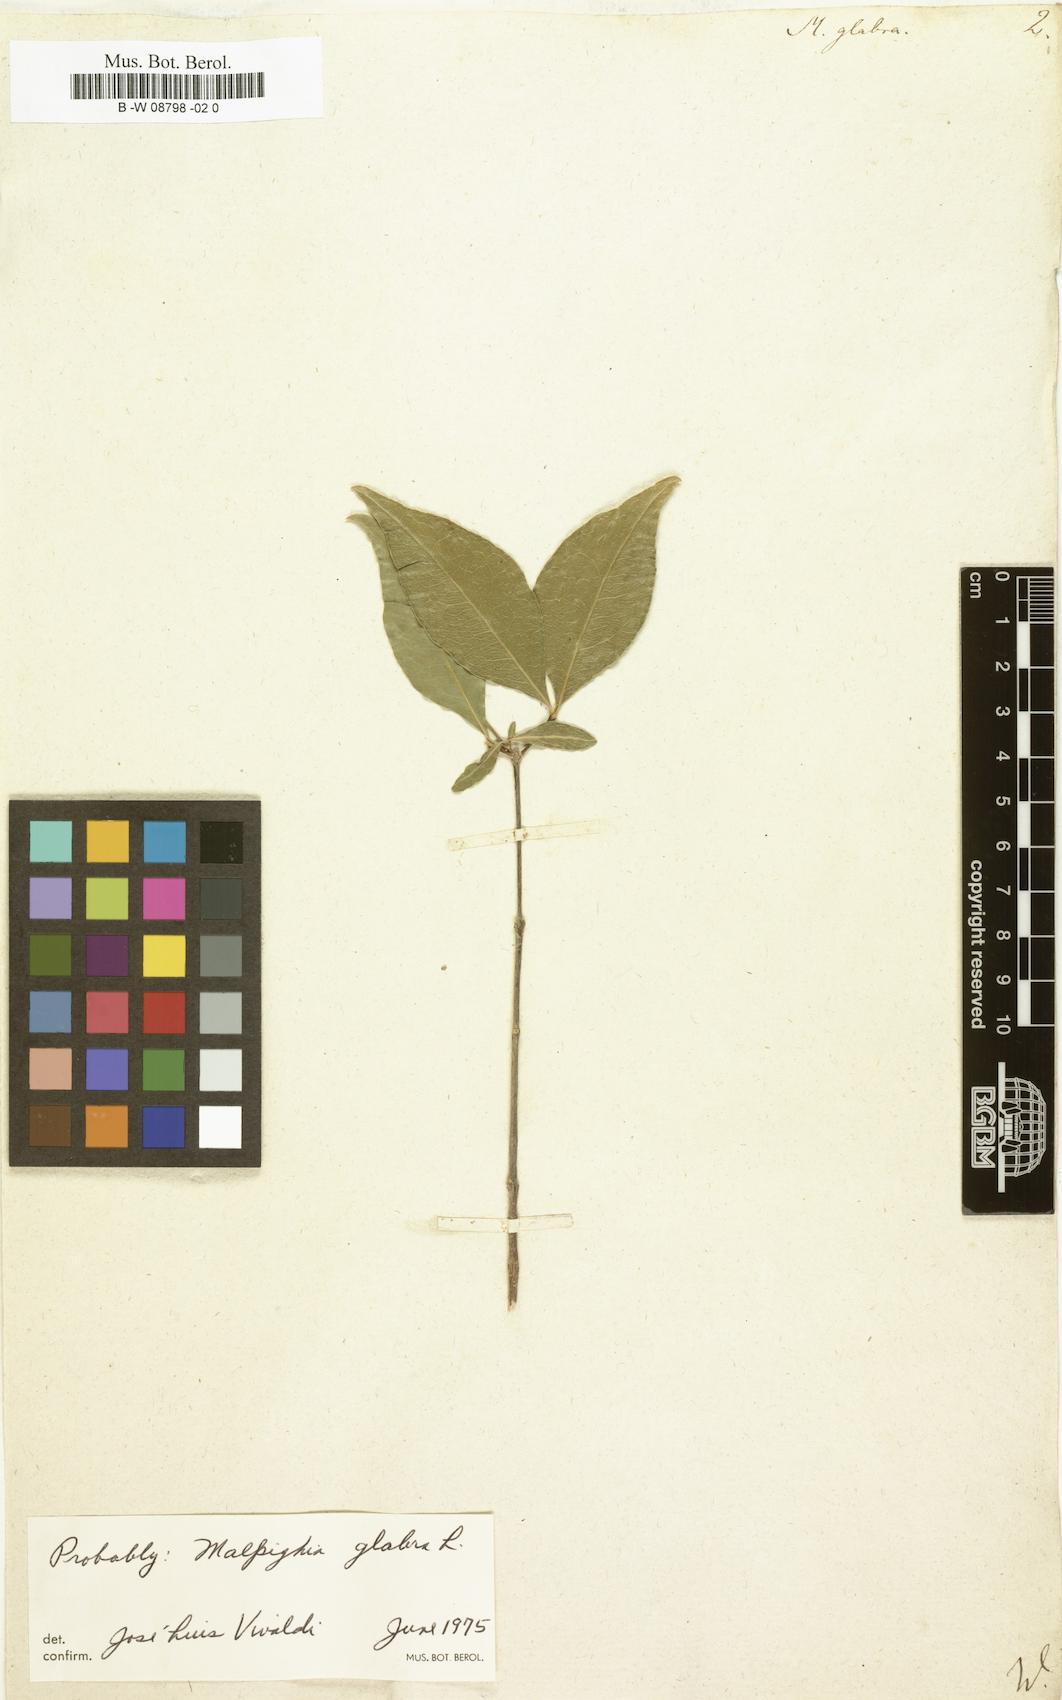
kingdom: Plantae
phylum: Tracheophyta
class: Magnoliopsida
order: Malpighiales
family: Malpighiaceae
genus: Malpighia
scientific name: Malpighia glabra
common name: Barbados cherry
